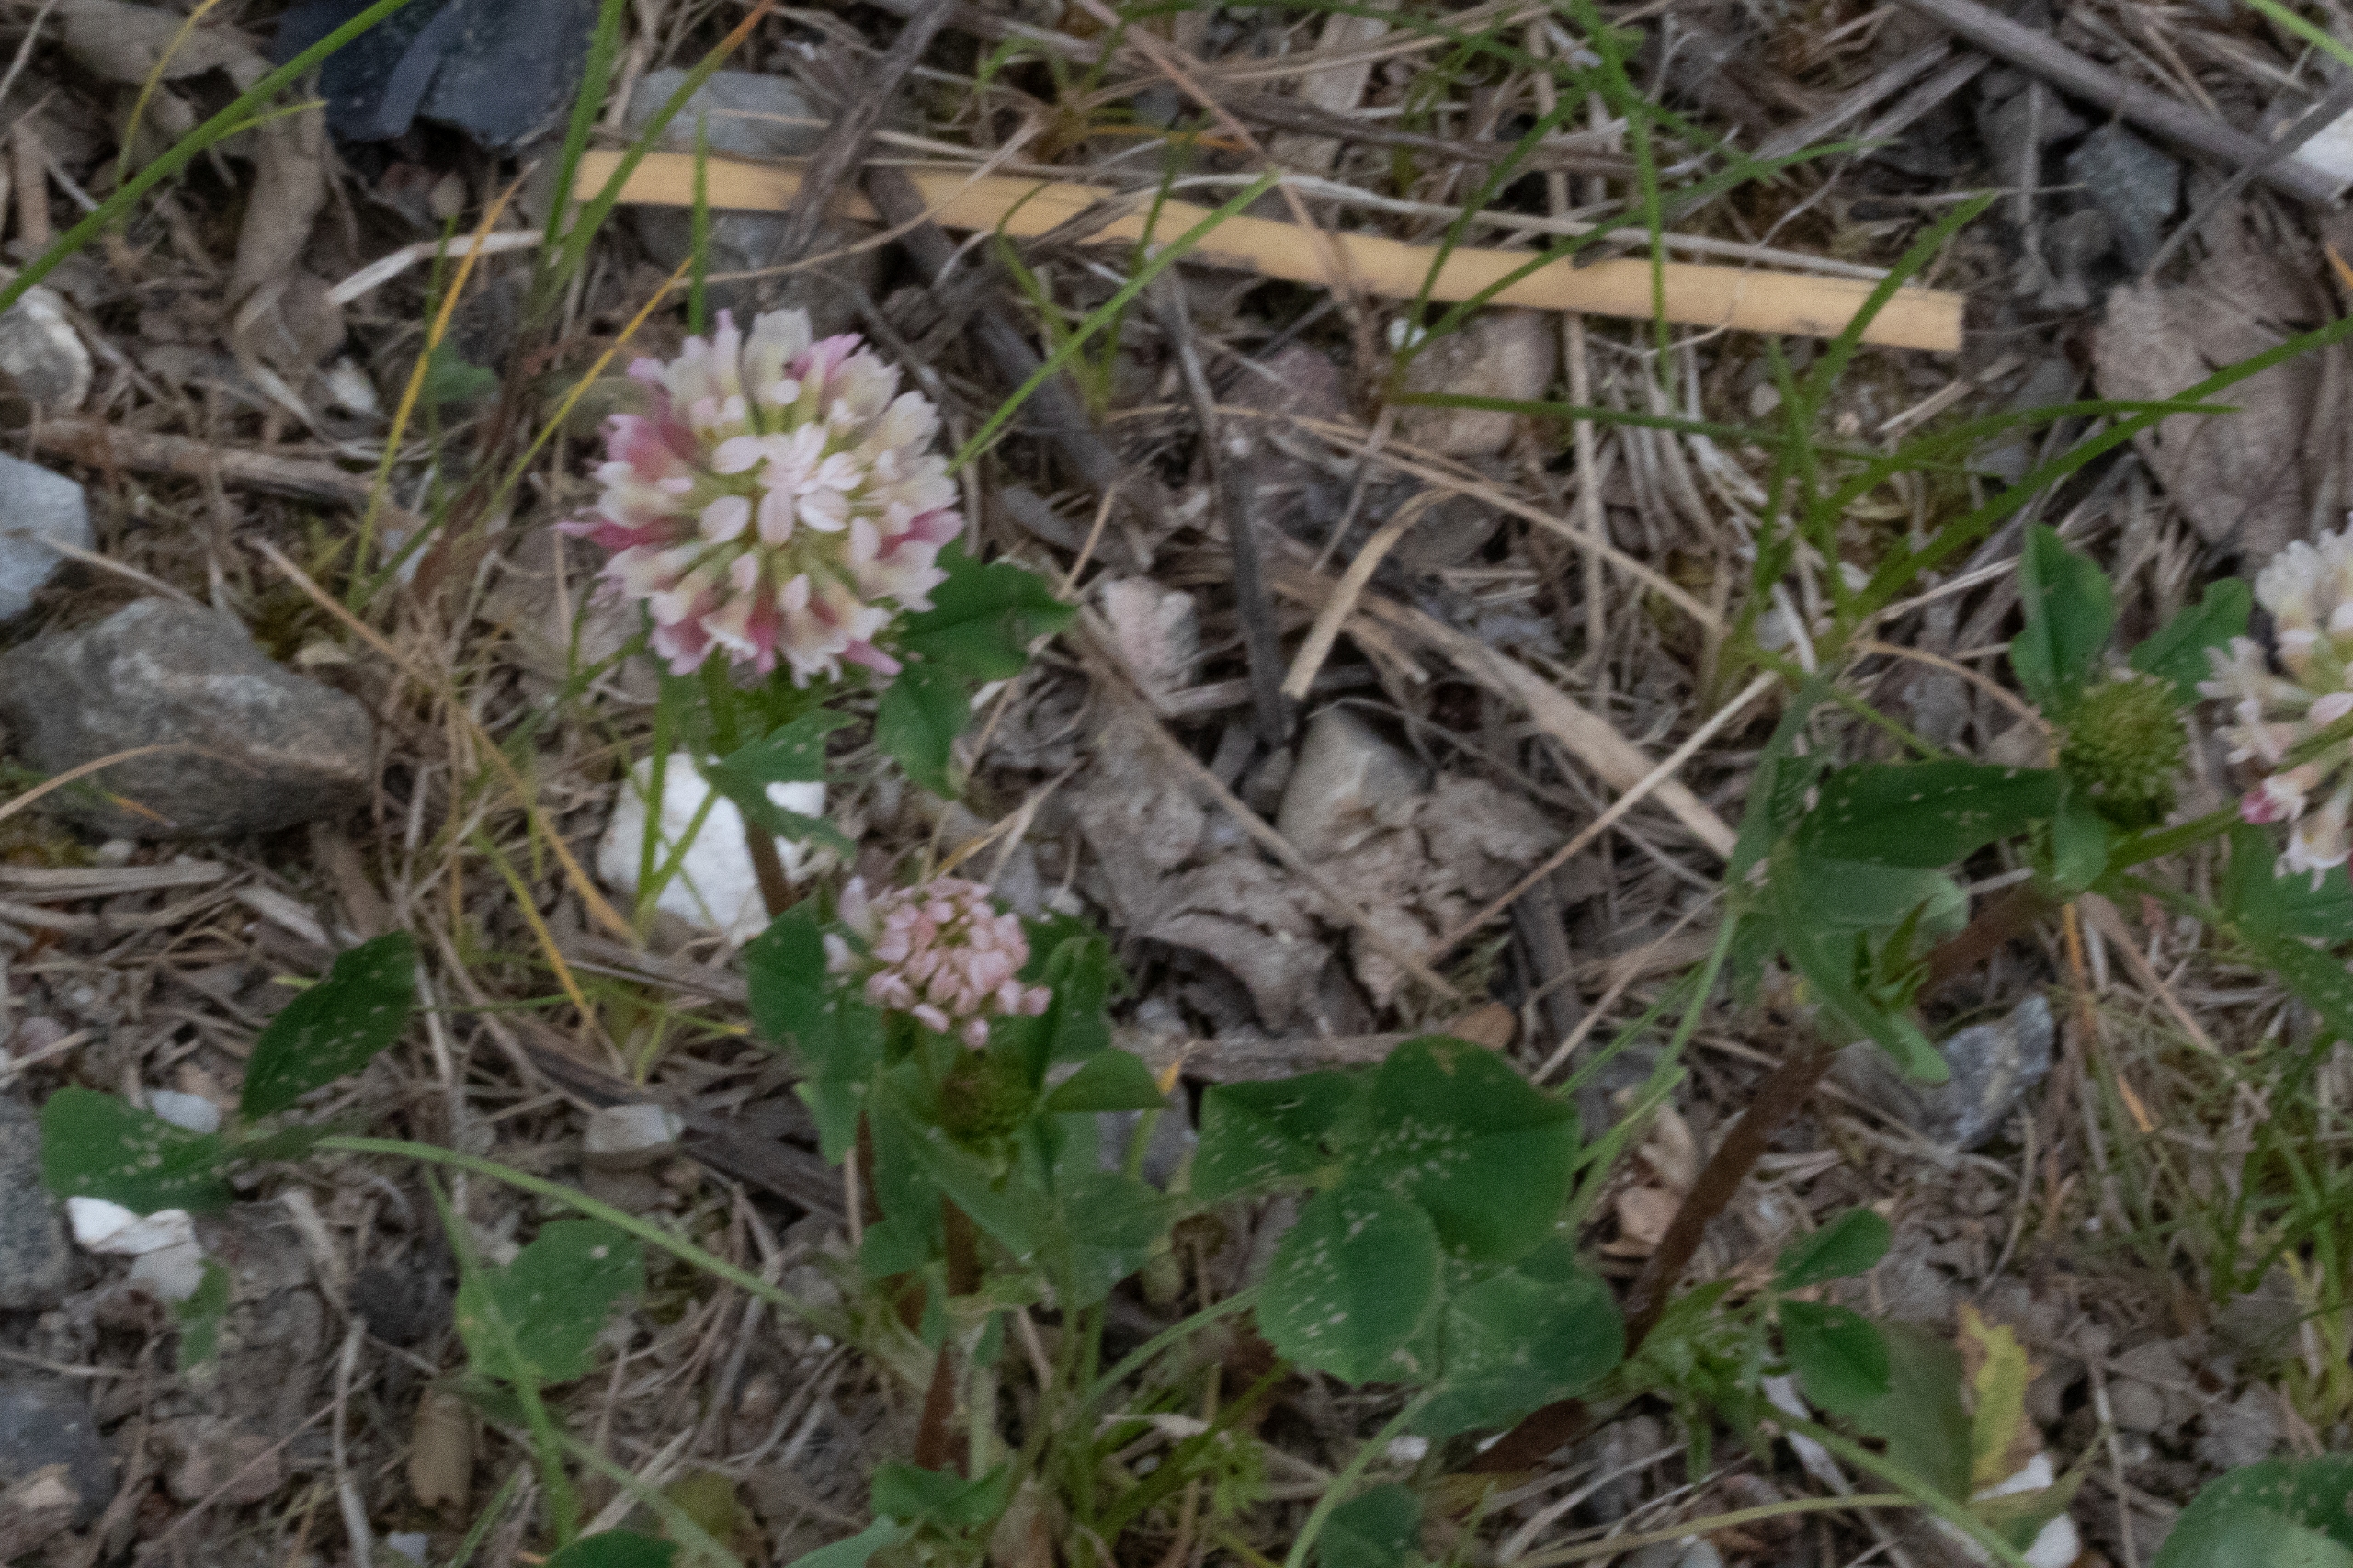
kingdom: Plantae
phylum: Tracheophyta
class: Magnoliopsida
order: Fabales
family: Fabaceae
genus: Trifolium
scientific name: Trifolium hybridum
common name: Alsike-kløver
